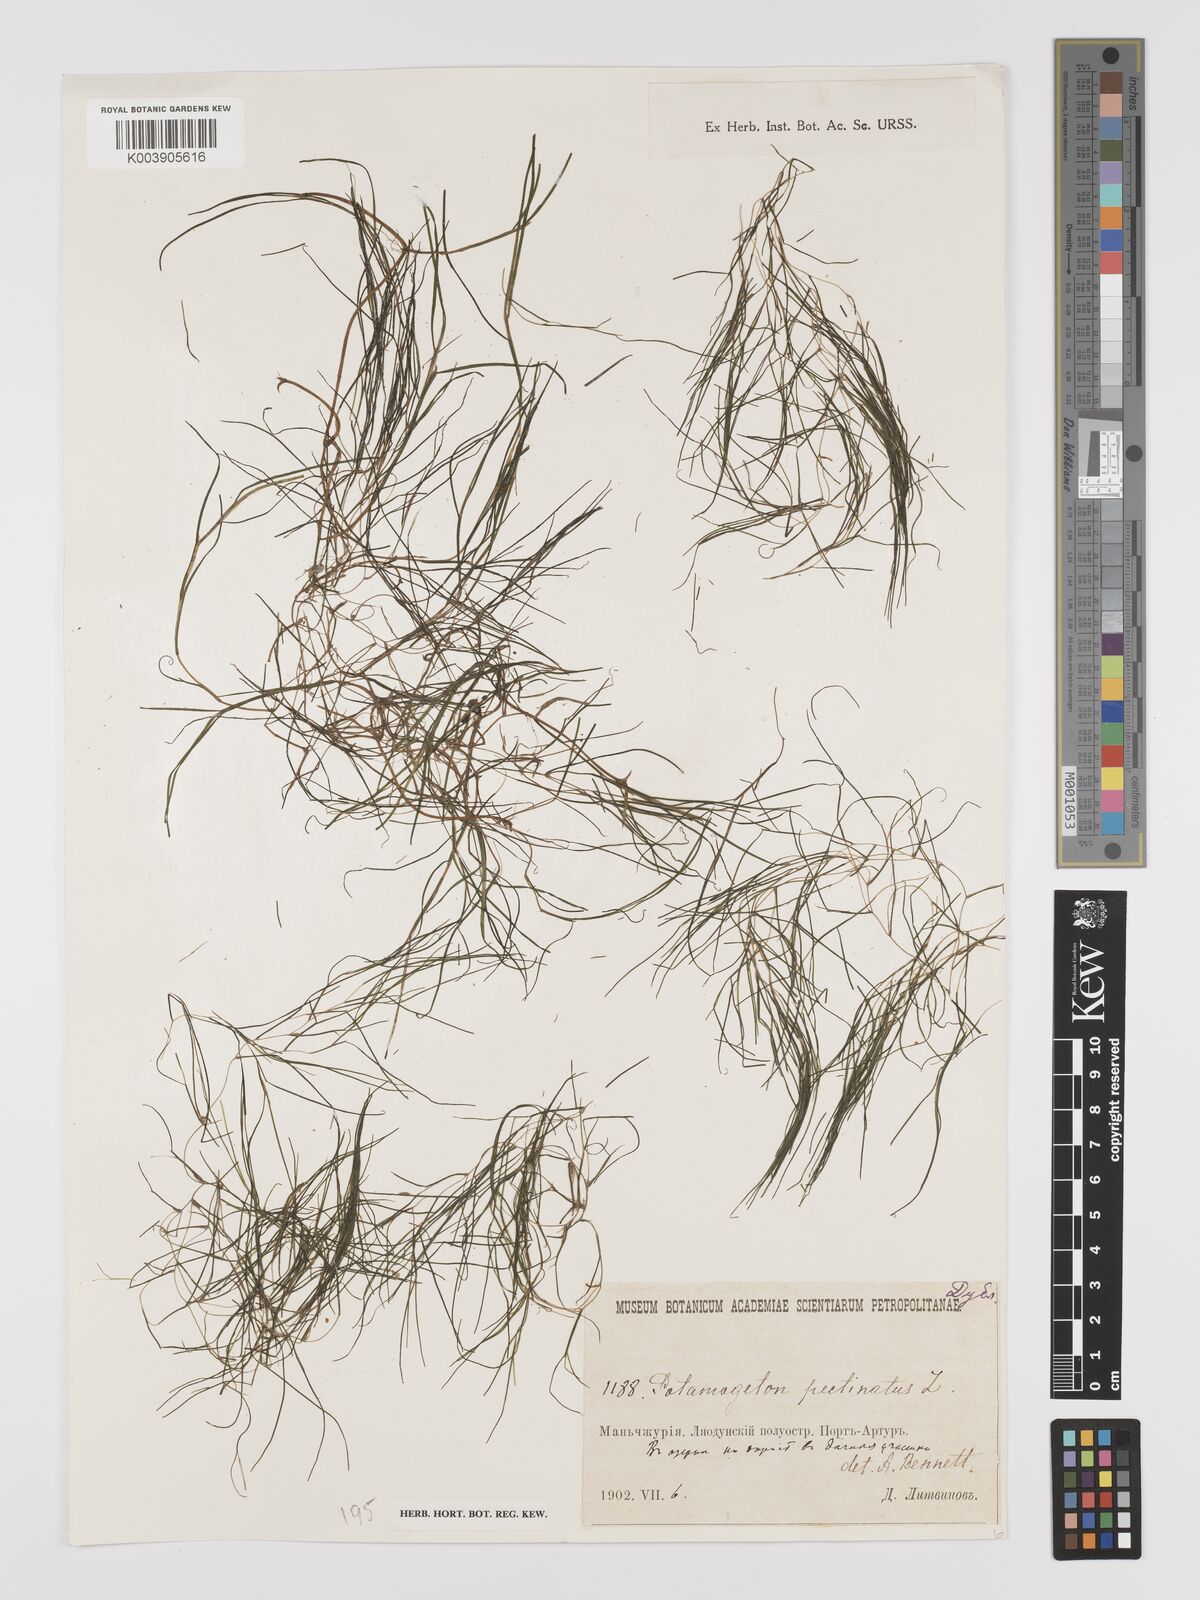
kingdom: Plantae
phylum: Tracheophyta
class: Liliopsida
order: Alismatales
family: Potamogetonaceae
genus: Stuckenia
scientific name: Stuckenia pectinata
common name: Sago pondweed
